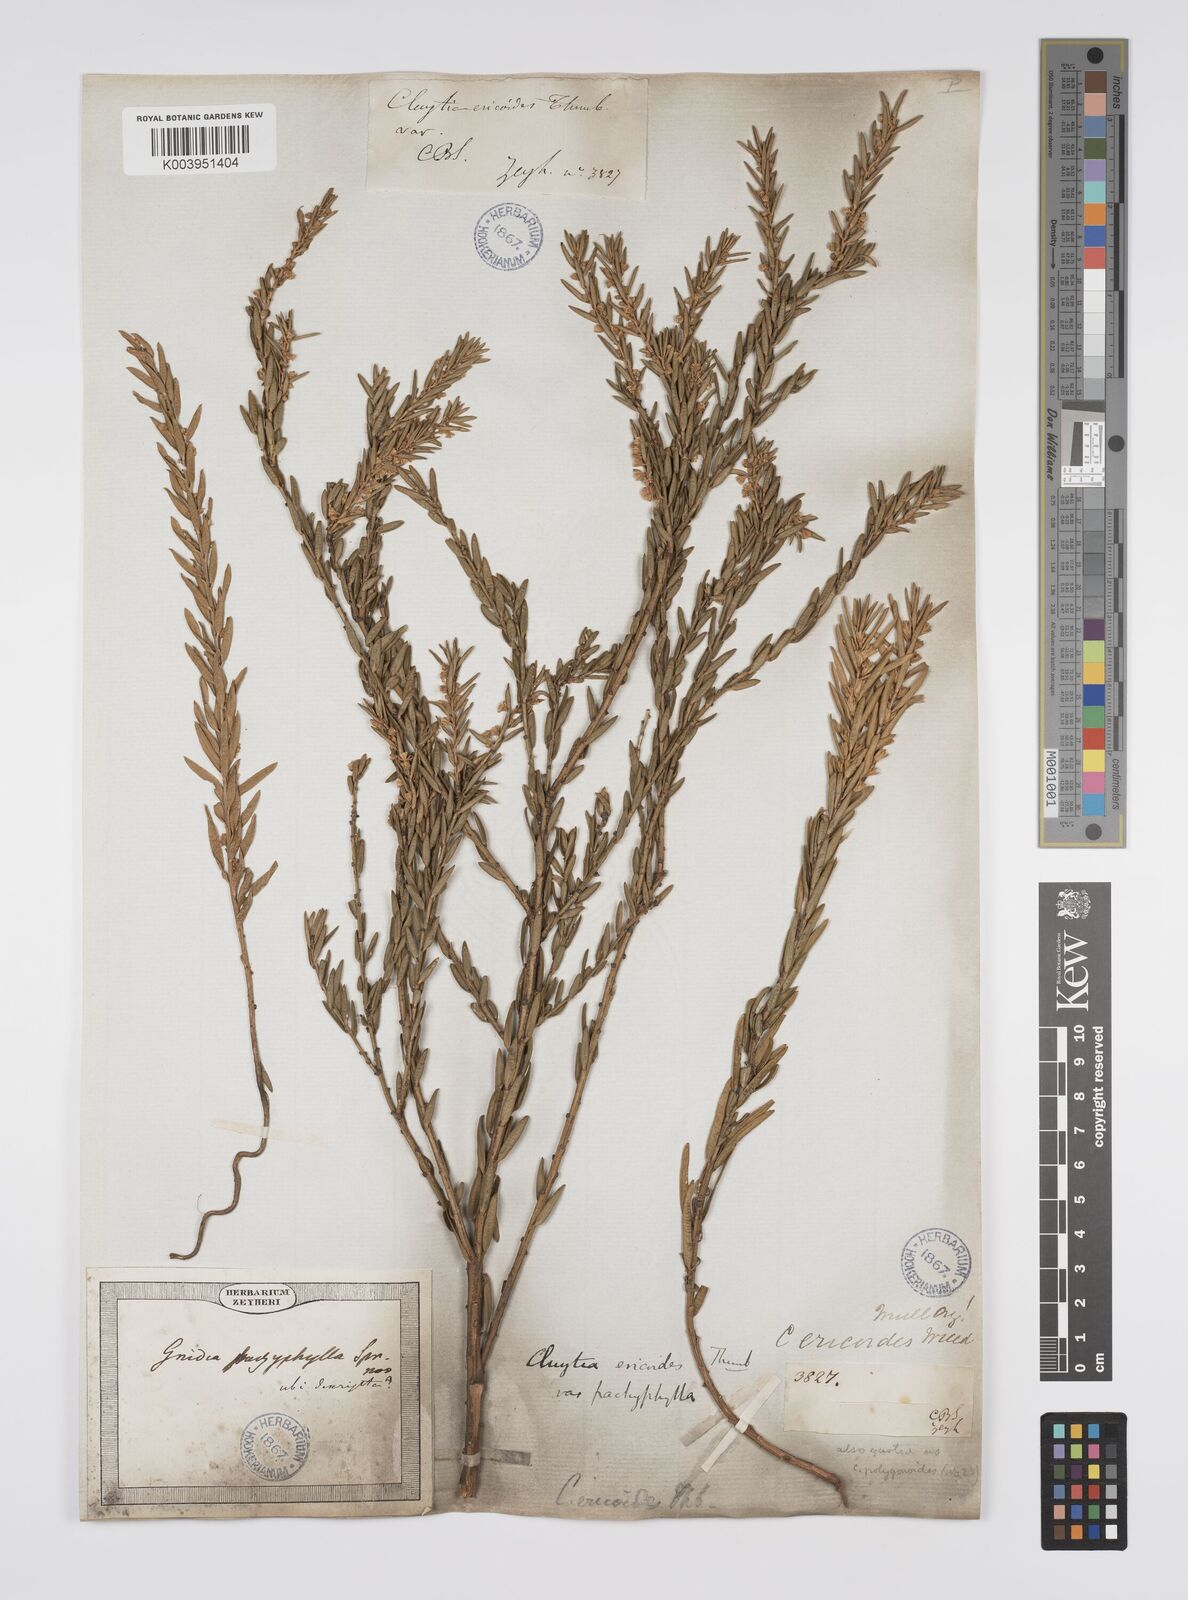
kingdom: Plantae
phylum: Tracheophyta
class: Magnoliopsida
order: Malpighiales
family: Peraceae
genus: Clutia
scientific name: Clutia
